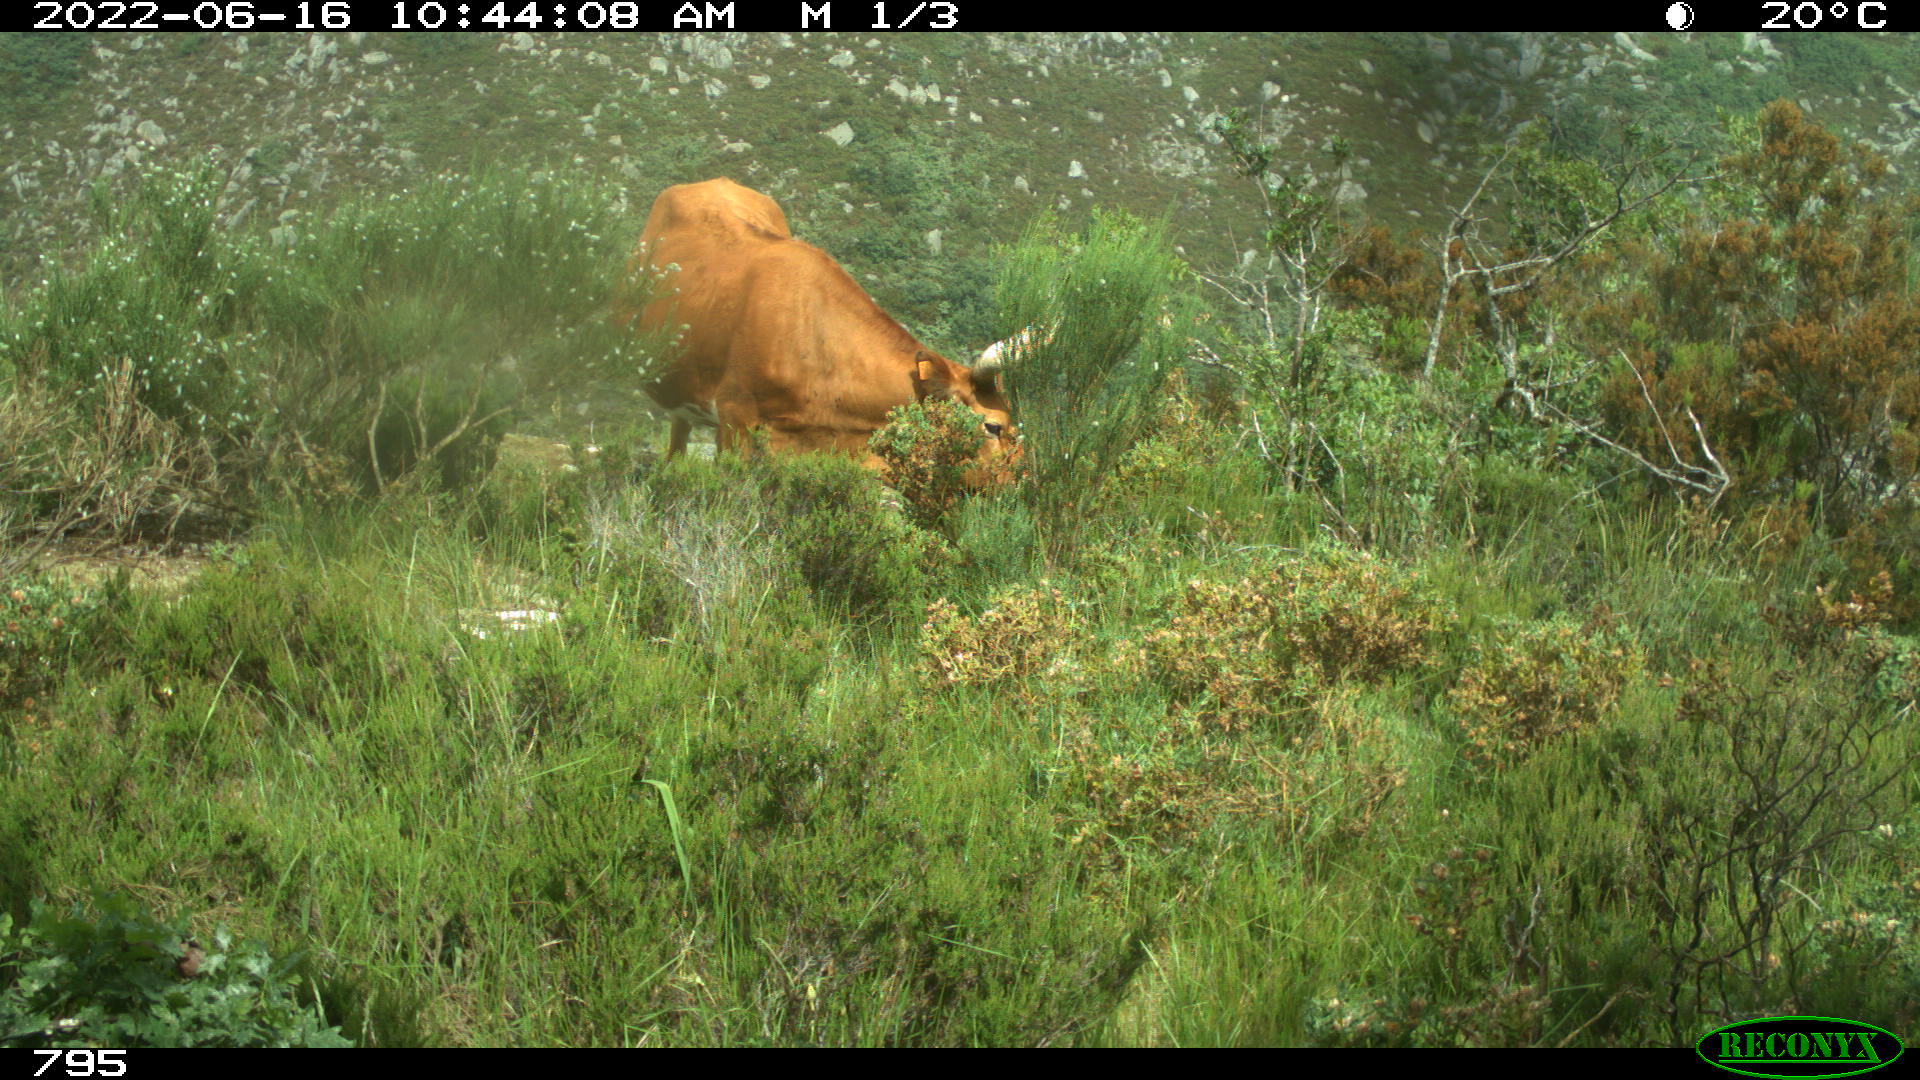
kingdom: Animalia
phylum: Chordata
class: Mammalia
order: Artiodactyla
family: Bovidae
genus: Bos
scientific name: Bos taurus
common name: Domesticated cattle
